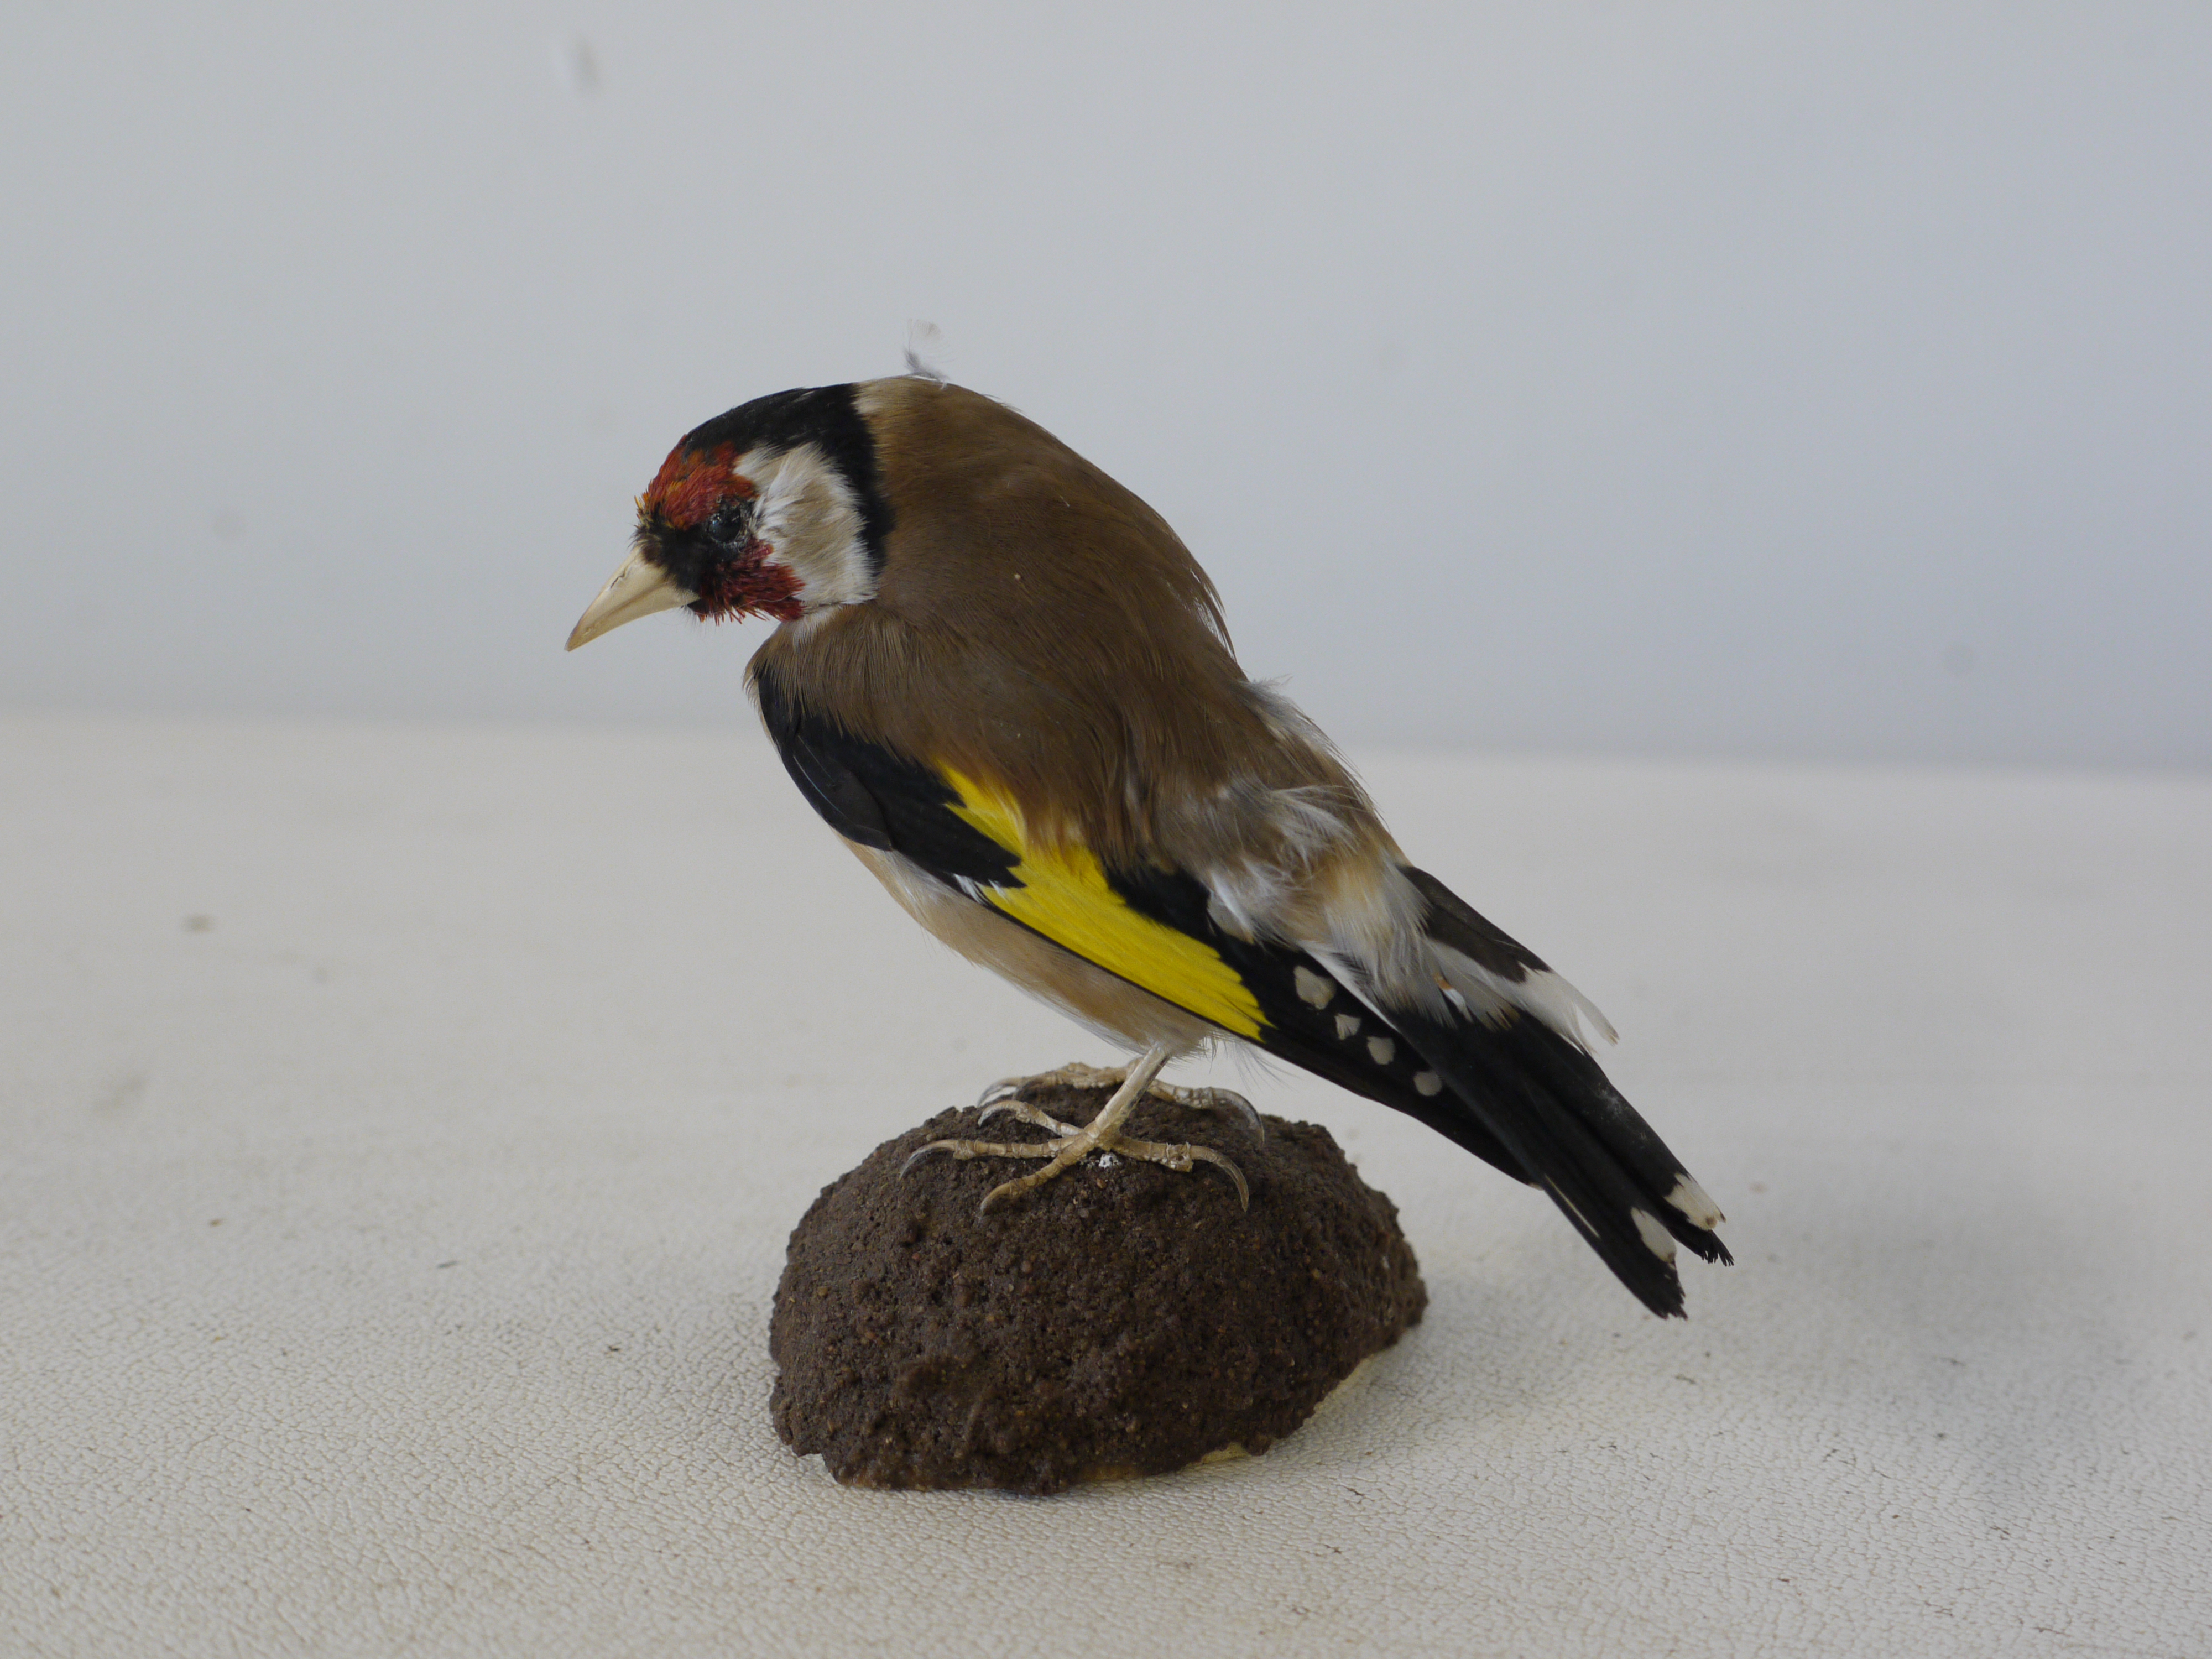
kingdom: Animalia
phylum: Chordata
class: Aves
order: Passeriformes
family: Fringillidae
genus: Carduelis
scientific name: Carduelis carduelis
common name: European goldfinch
